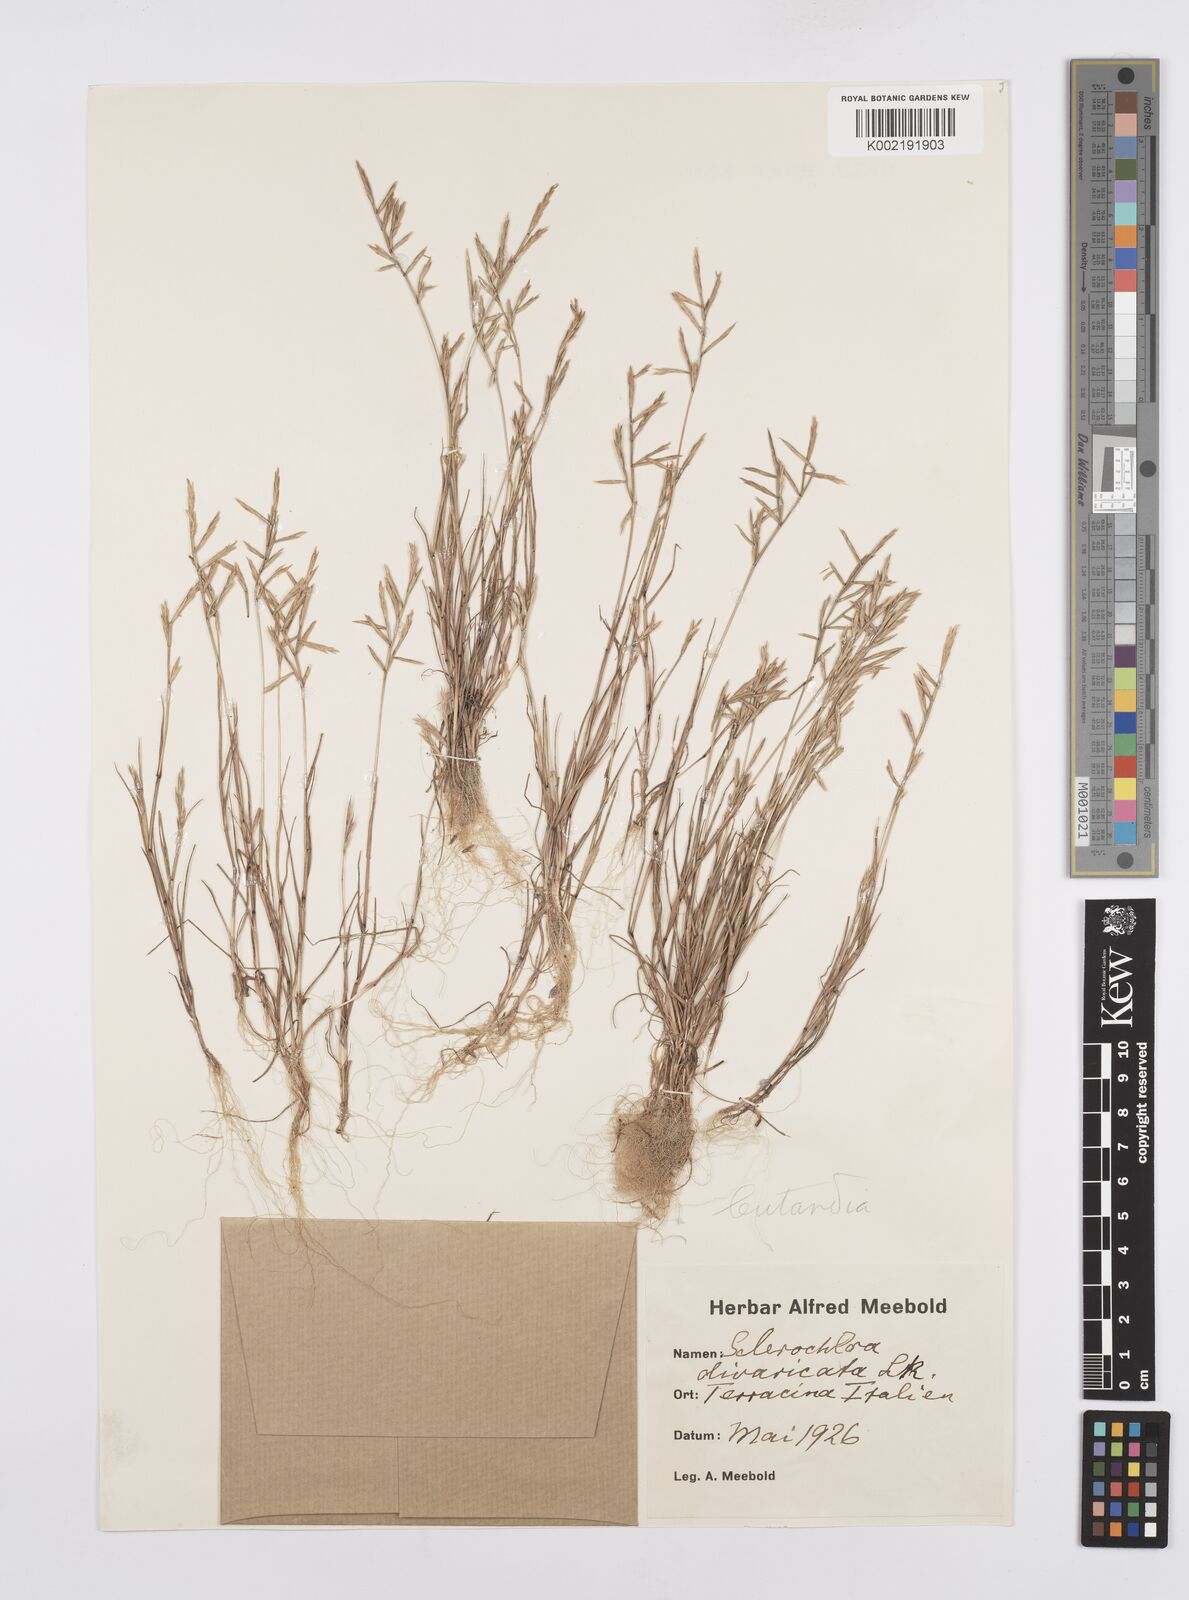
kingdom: Plantae
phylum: Tracheophyta
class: Liliopsida
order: Poales
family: Poaceae
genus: Cutandia
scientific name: Cutandia maritima
